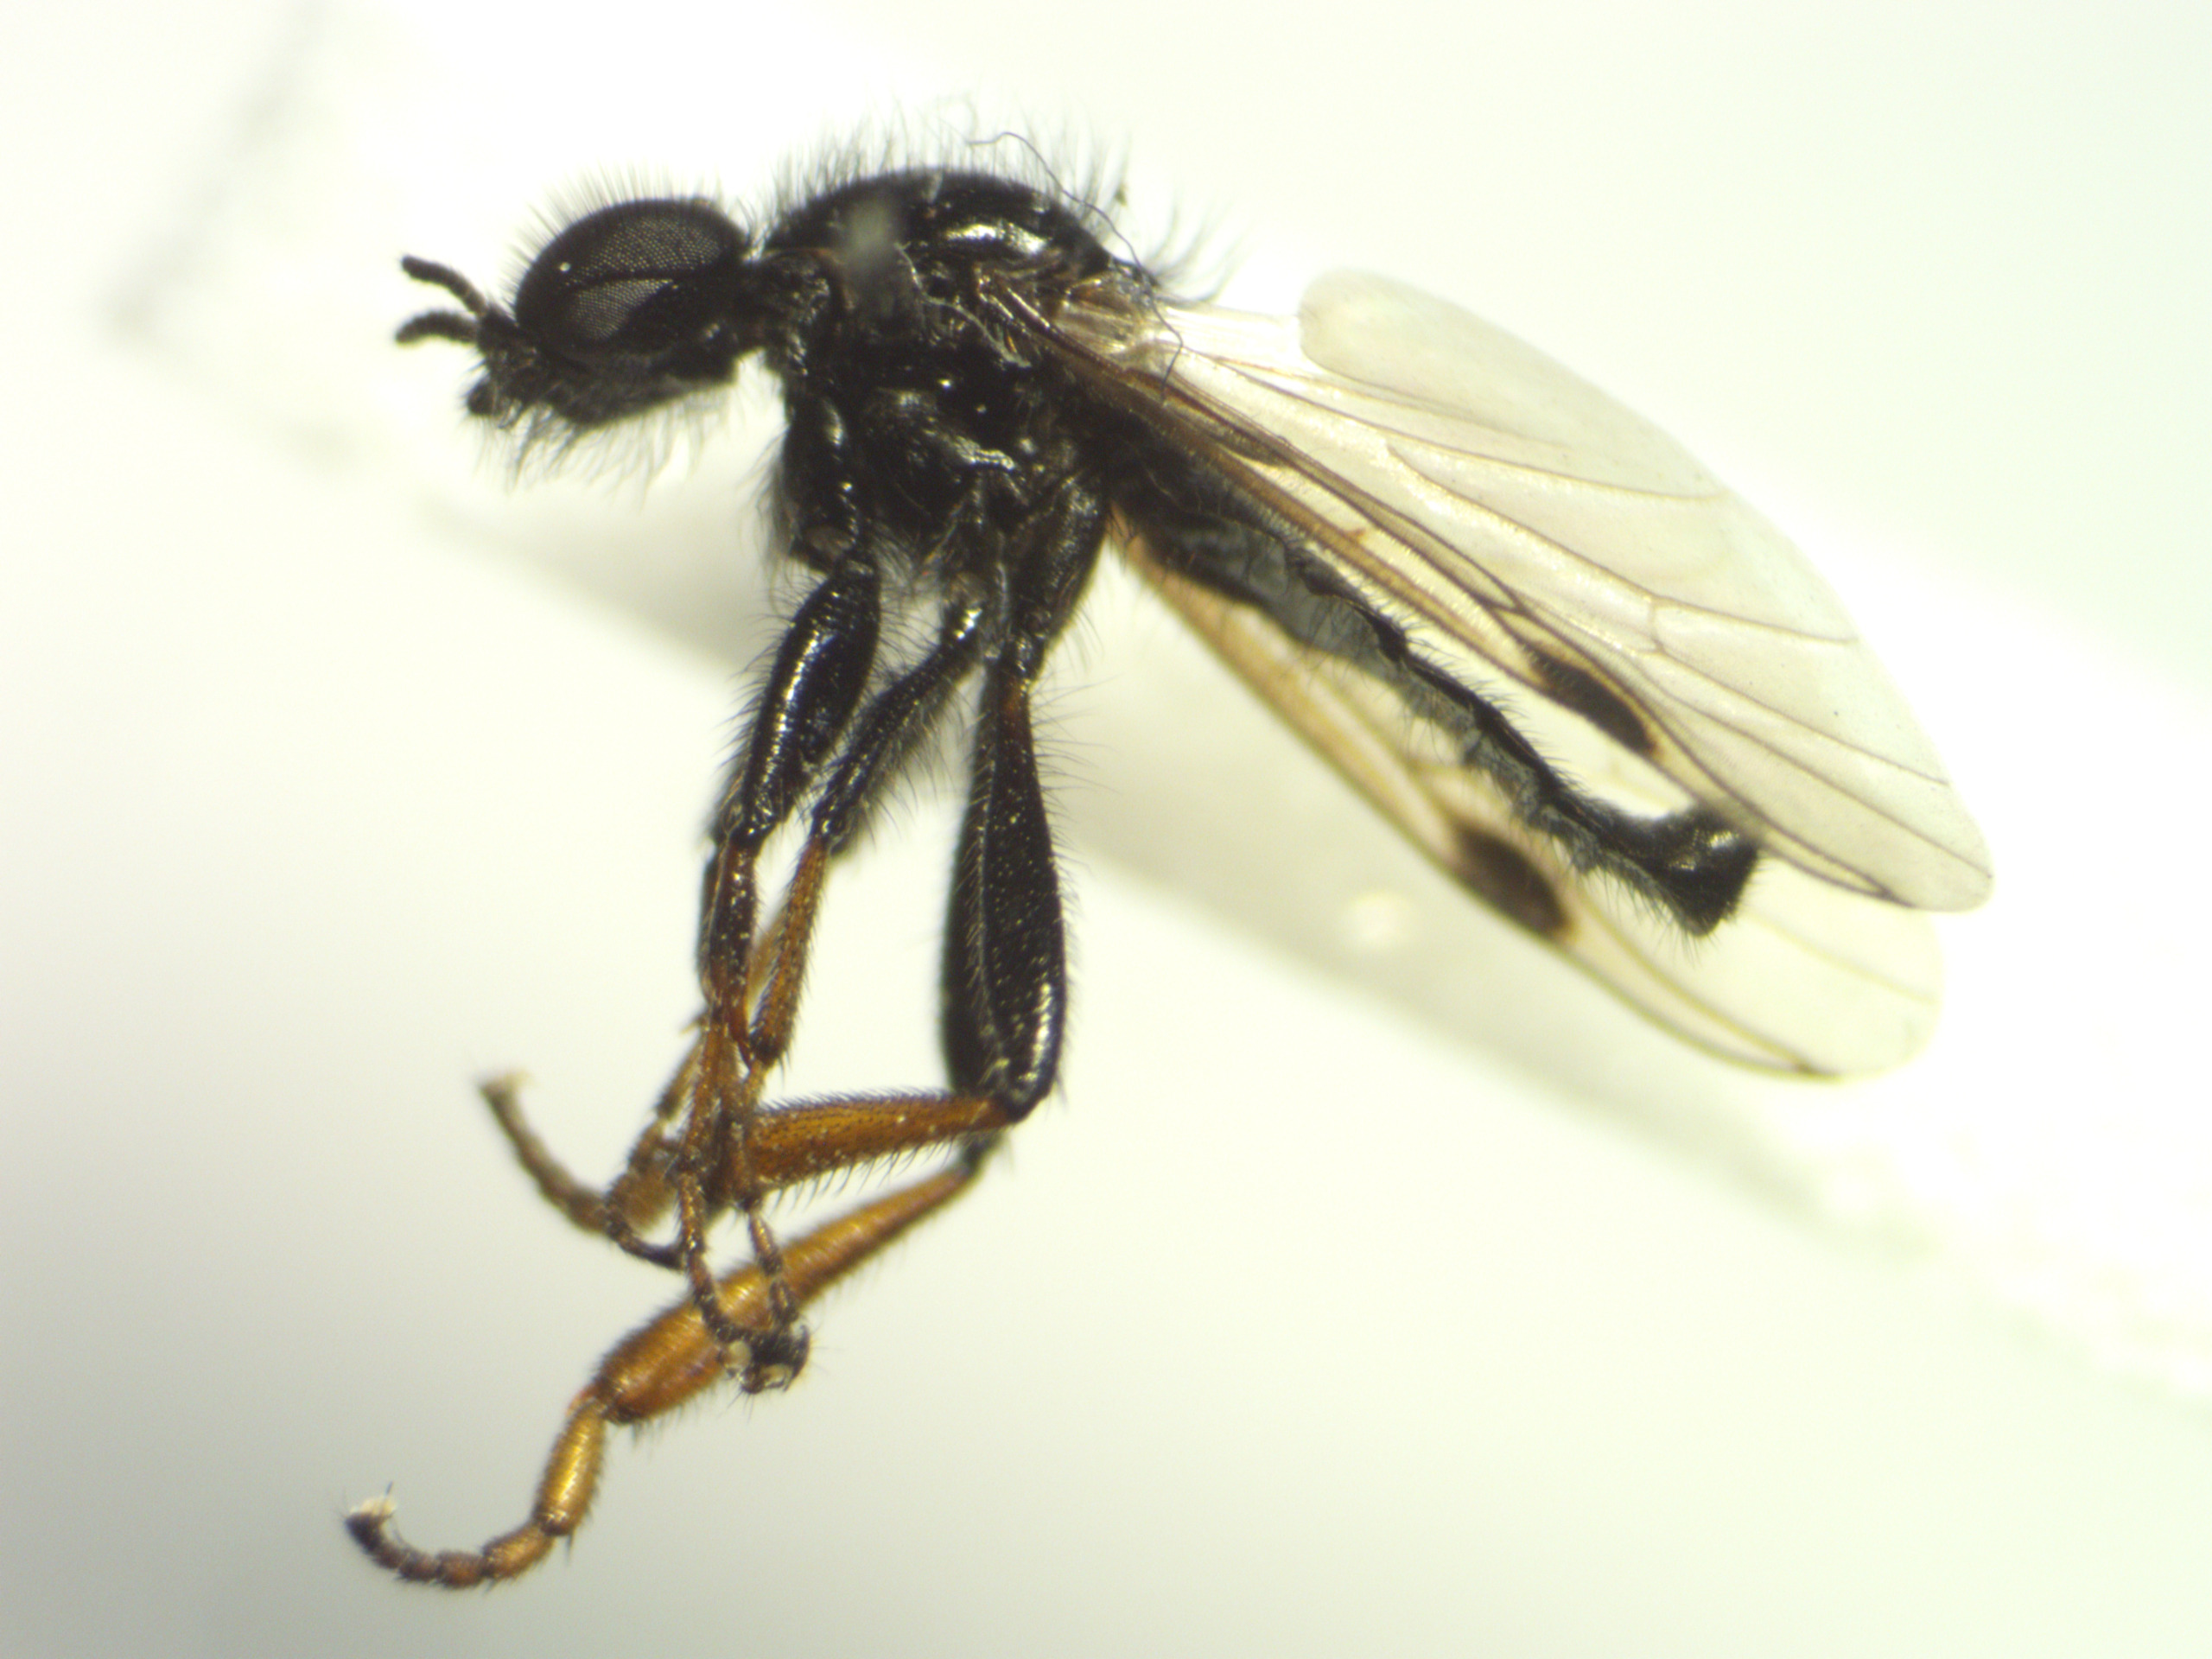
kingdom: Animalia
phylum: Arthropoda
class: Insecta
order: Diptera
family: Bibionidae
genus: Bibio
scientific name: Bibio johannis
